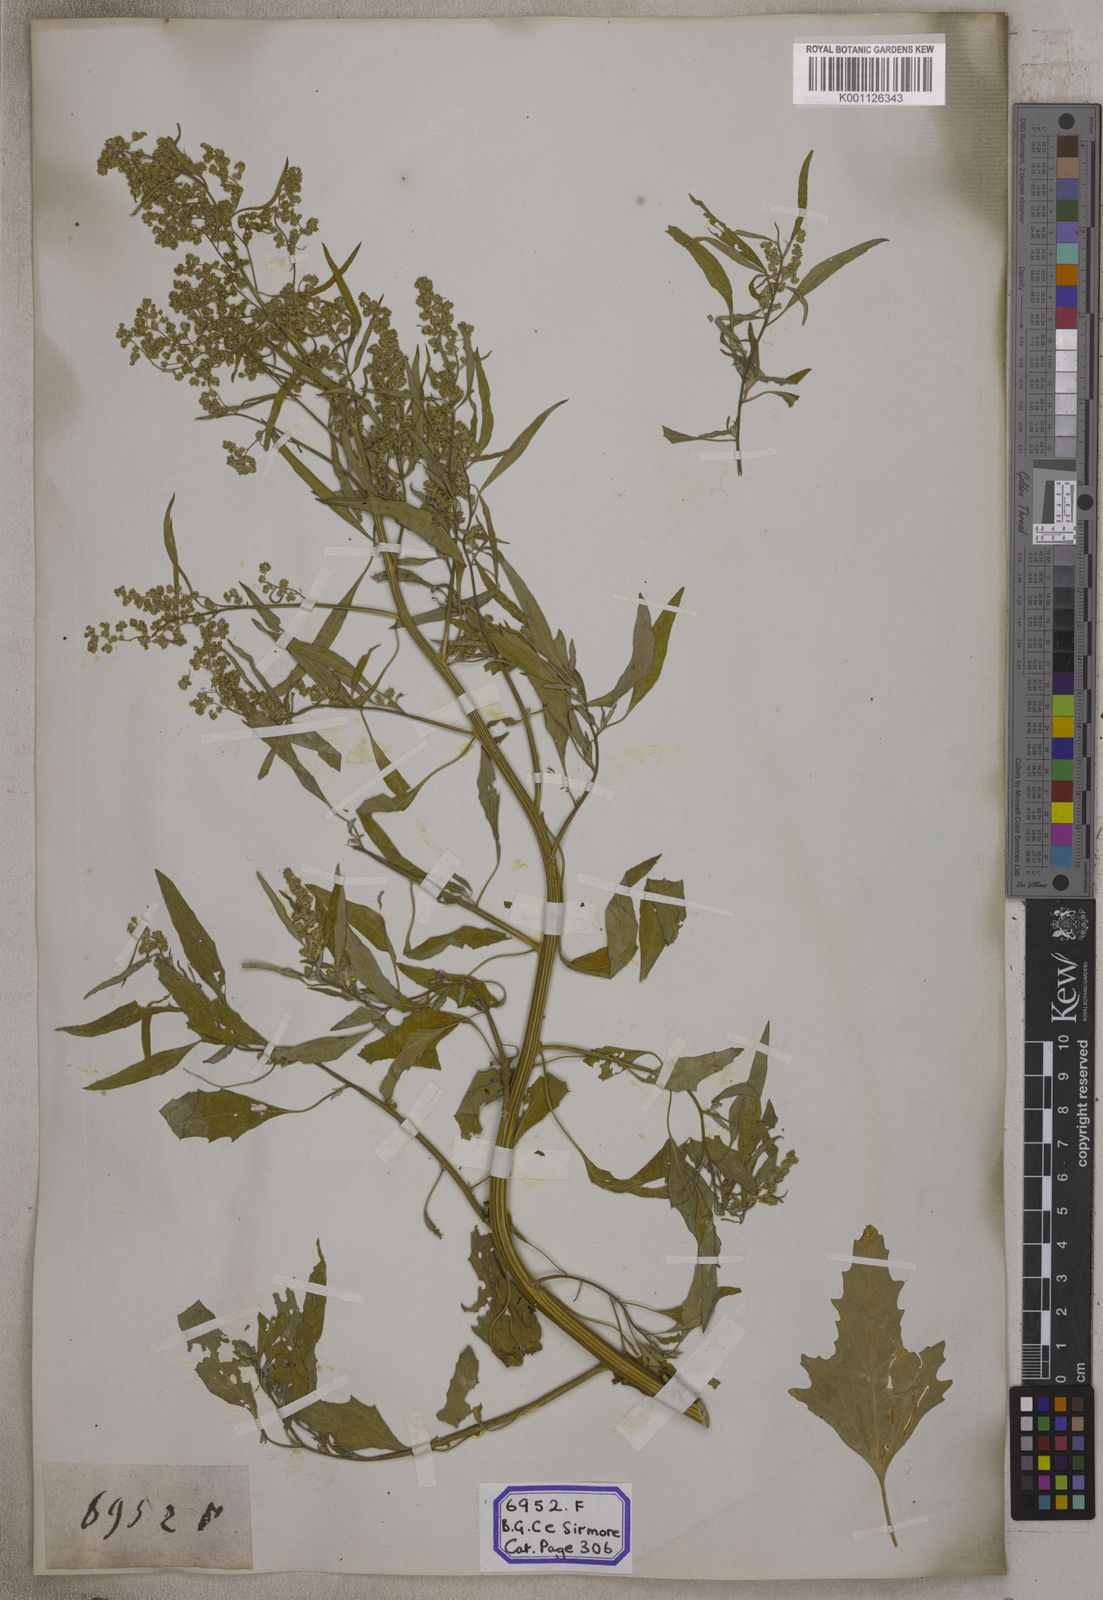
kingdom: Plantae
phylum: Tracheophyta
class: Magnoliopsida
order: Caryophyllales
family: Amaranthaceae
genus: Chenopodium
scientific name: Chenopodium album
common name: Fat-hen
